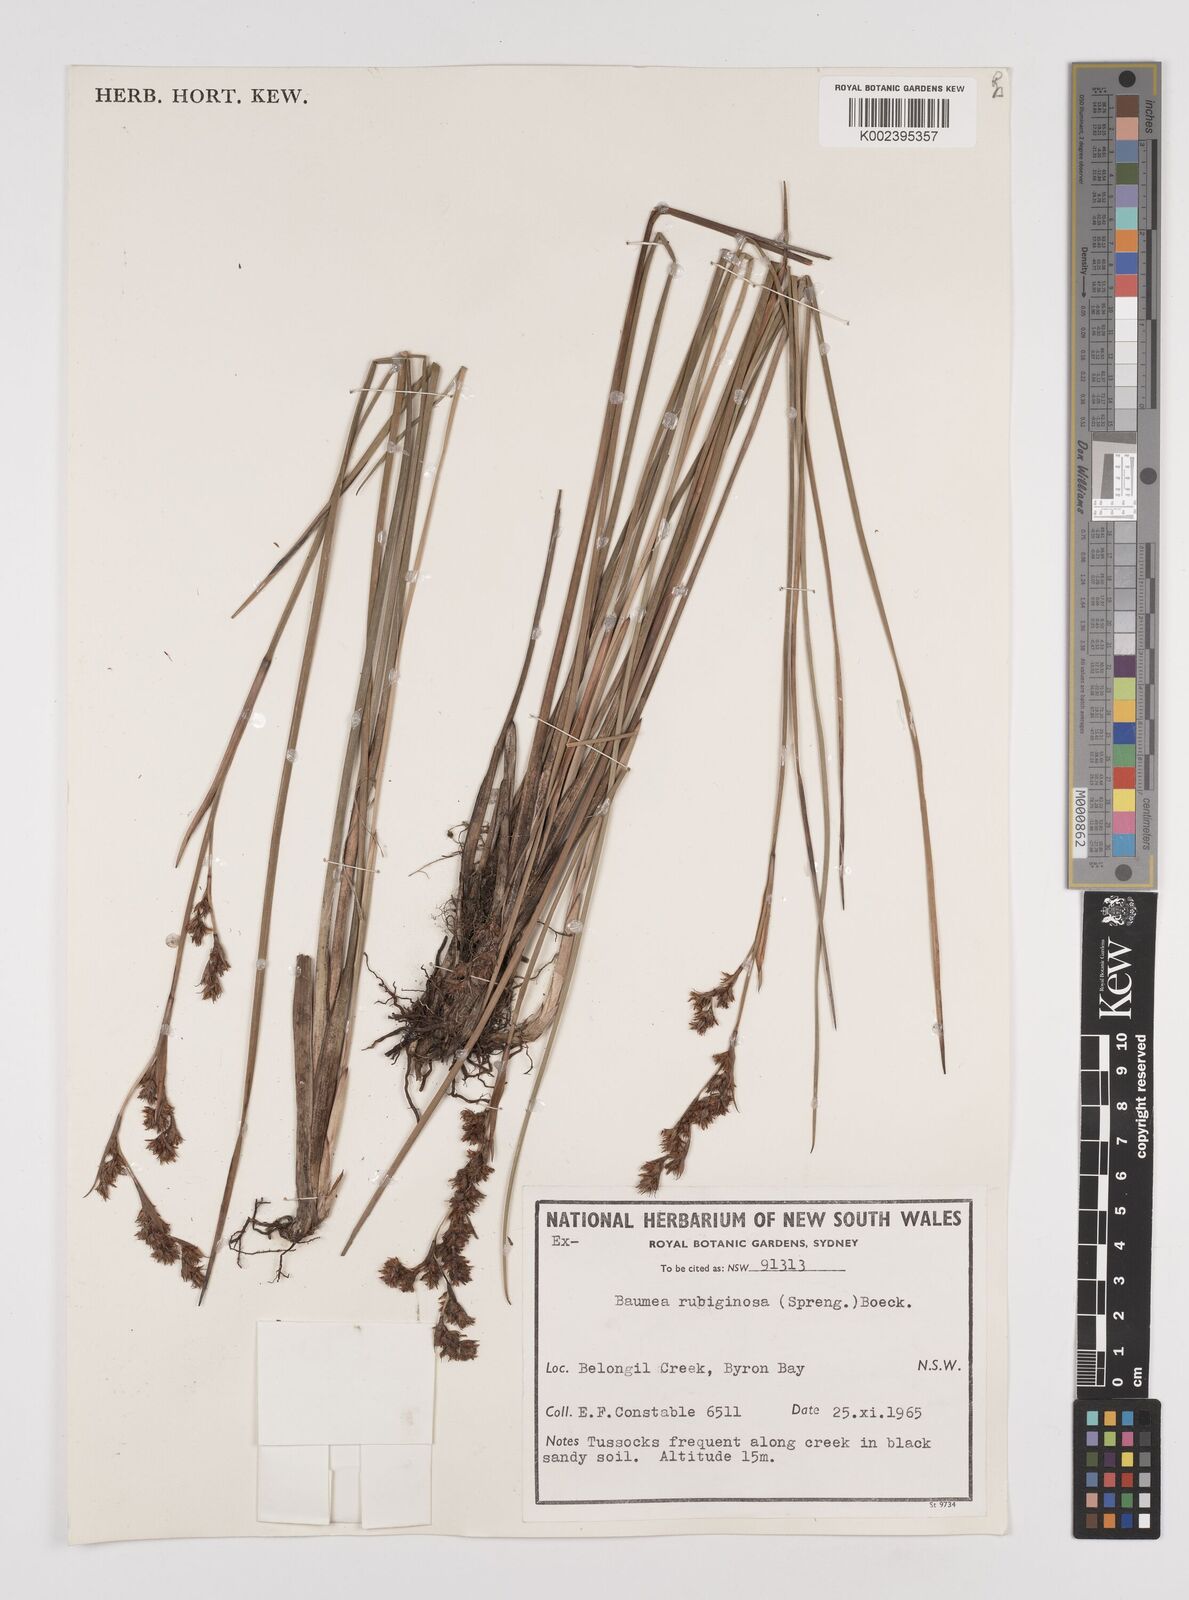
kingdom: Plantae
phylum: Tracheophyta
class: Liliopsida
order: Poales
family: Cyperaceae
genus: Machaerina
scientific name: Machaerina rubiginosa
